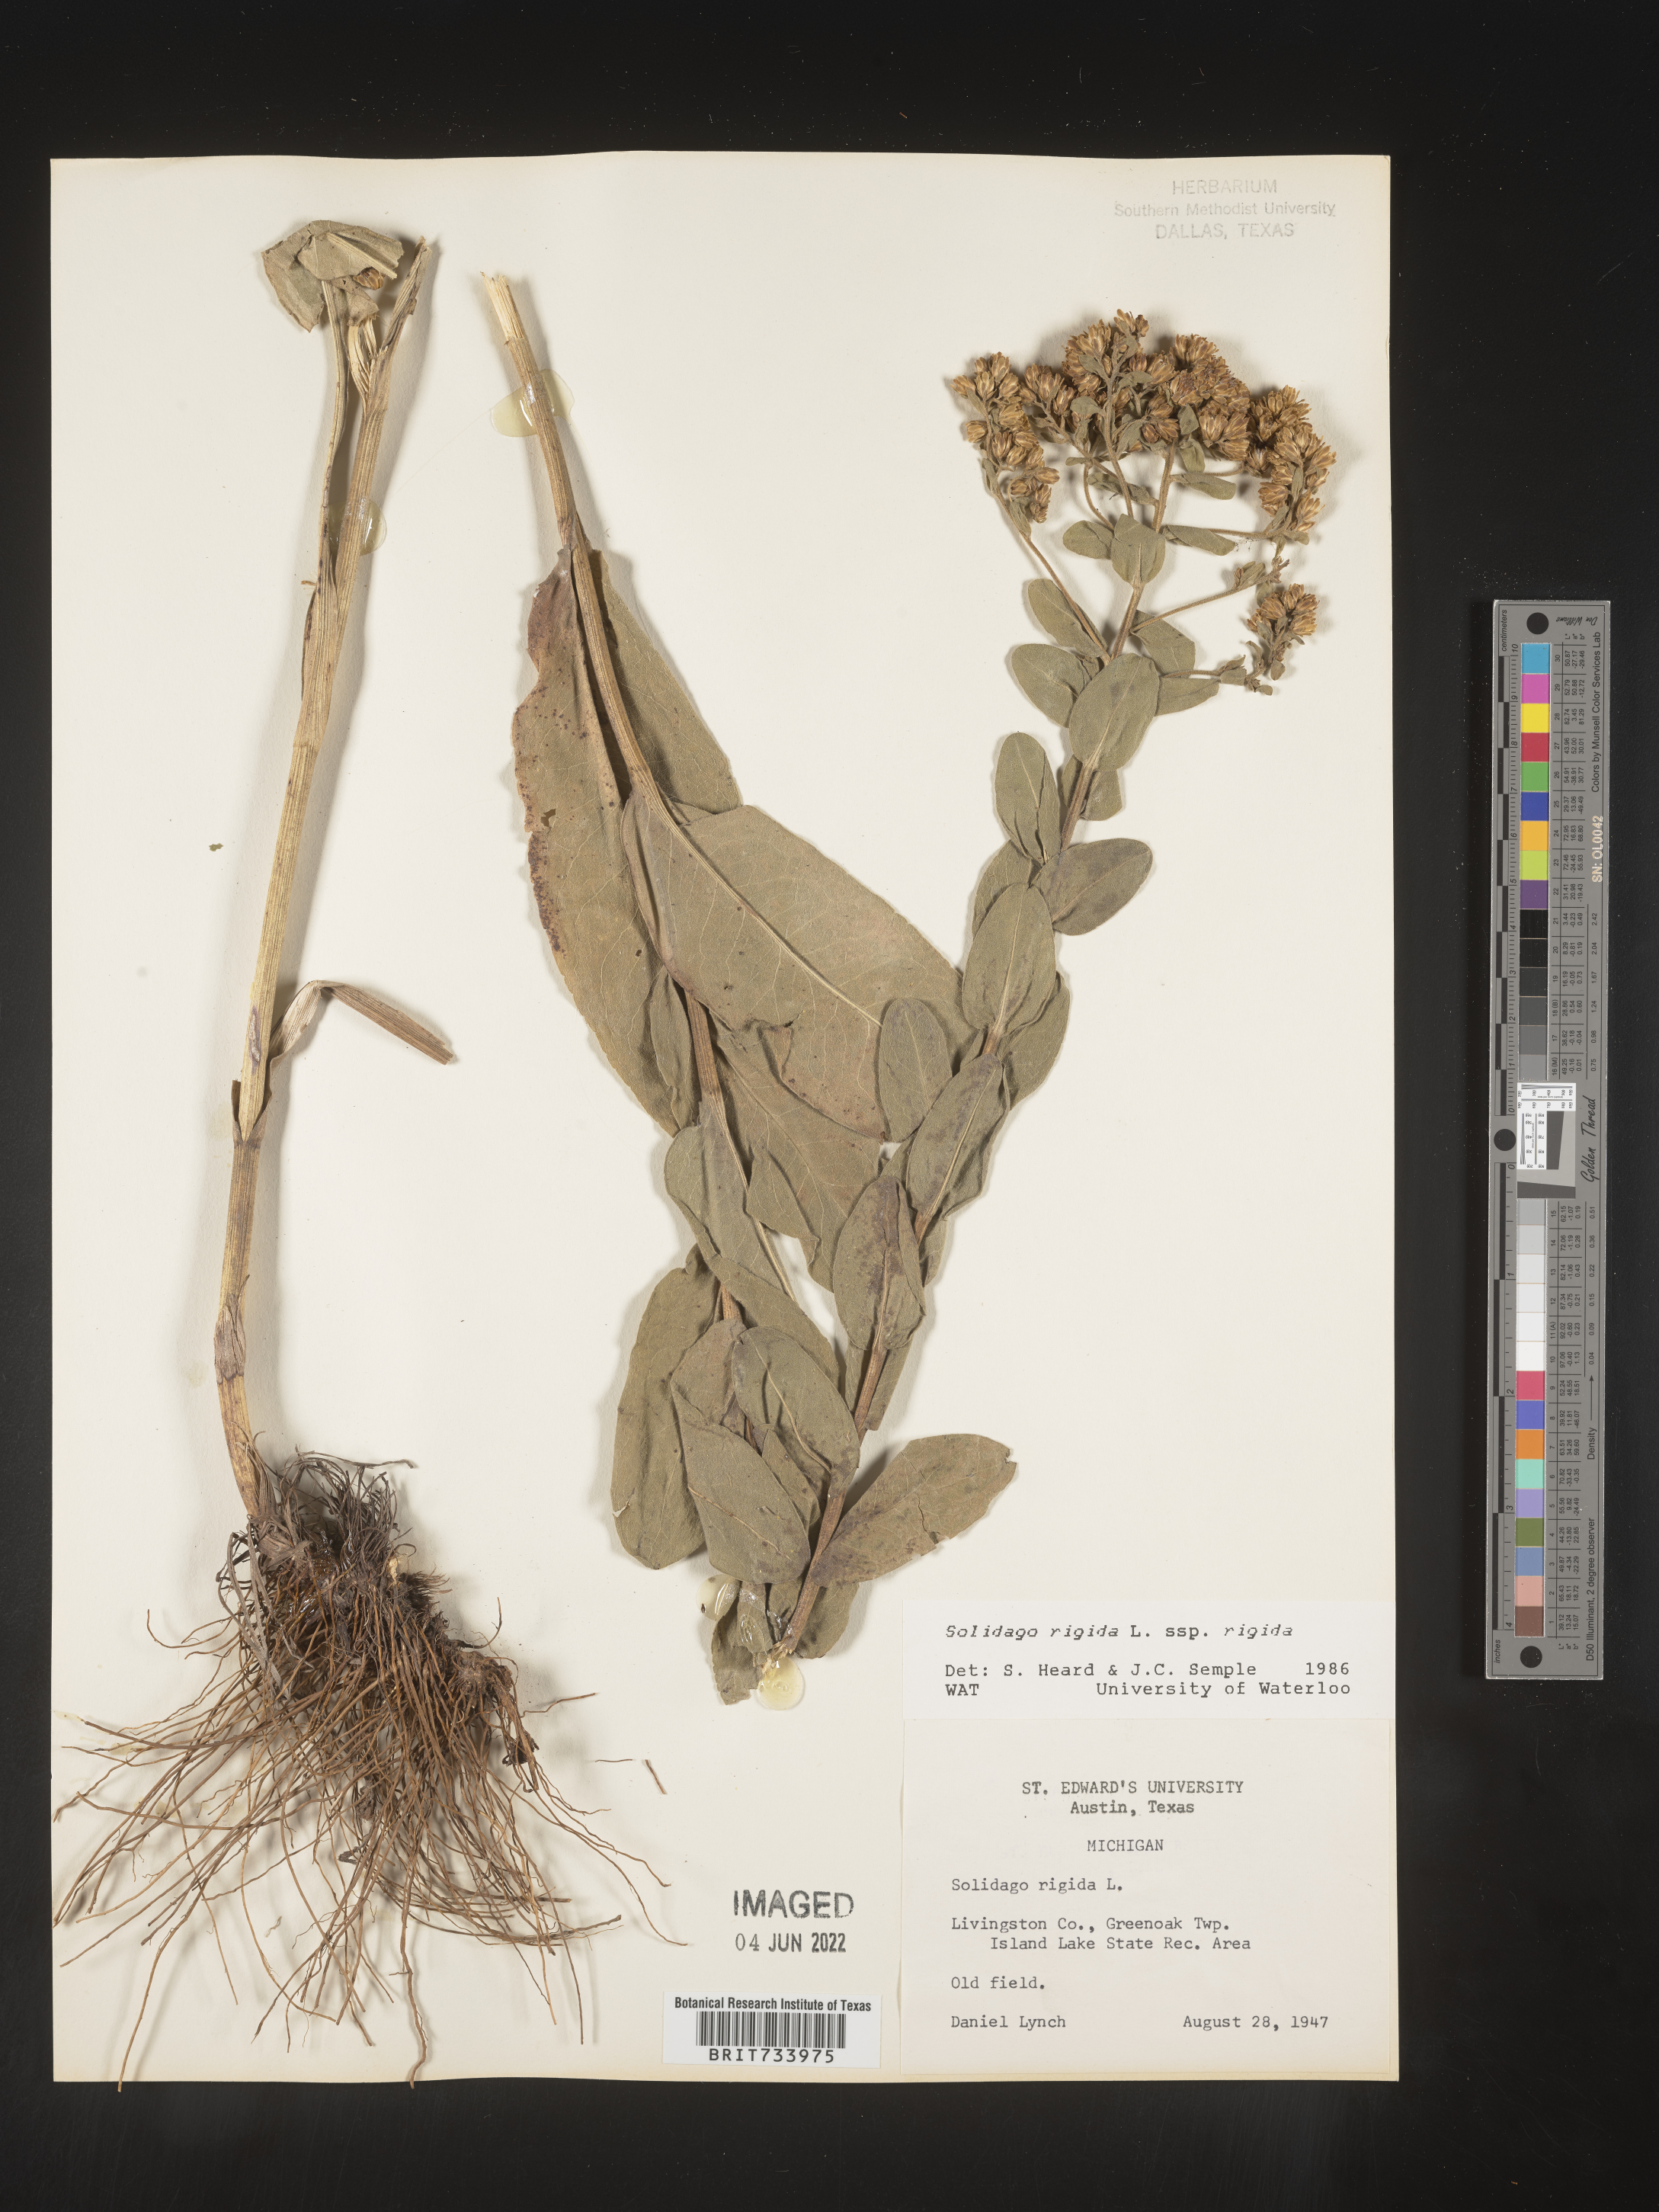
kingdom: Plantae
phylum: Tracheophyta
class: Magnoliopsida
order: Asterales
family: Asteraceae
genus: Solidago
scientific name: Solidago rigida
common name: Rigid goldenrod
